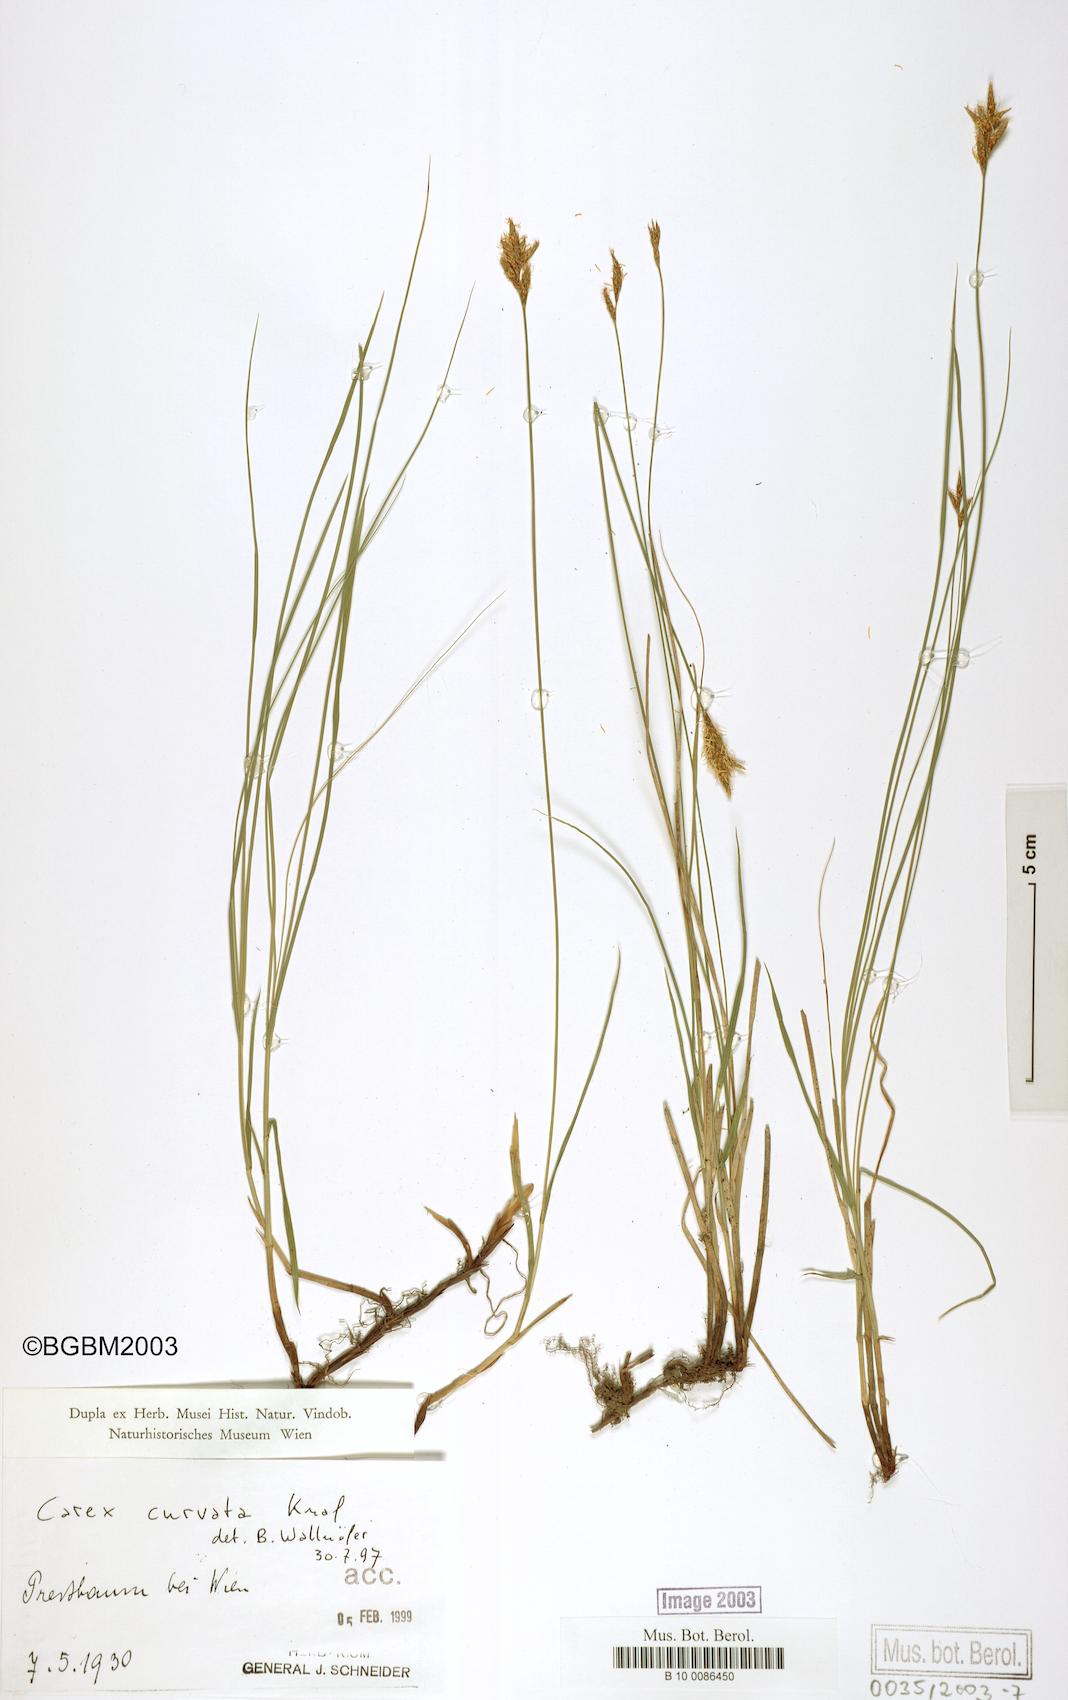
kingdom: Plantae
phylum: Tracheophyta
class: Liliopsida
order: Poales
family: Cyperaceae
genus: Carex
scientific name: Carex curvata
